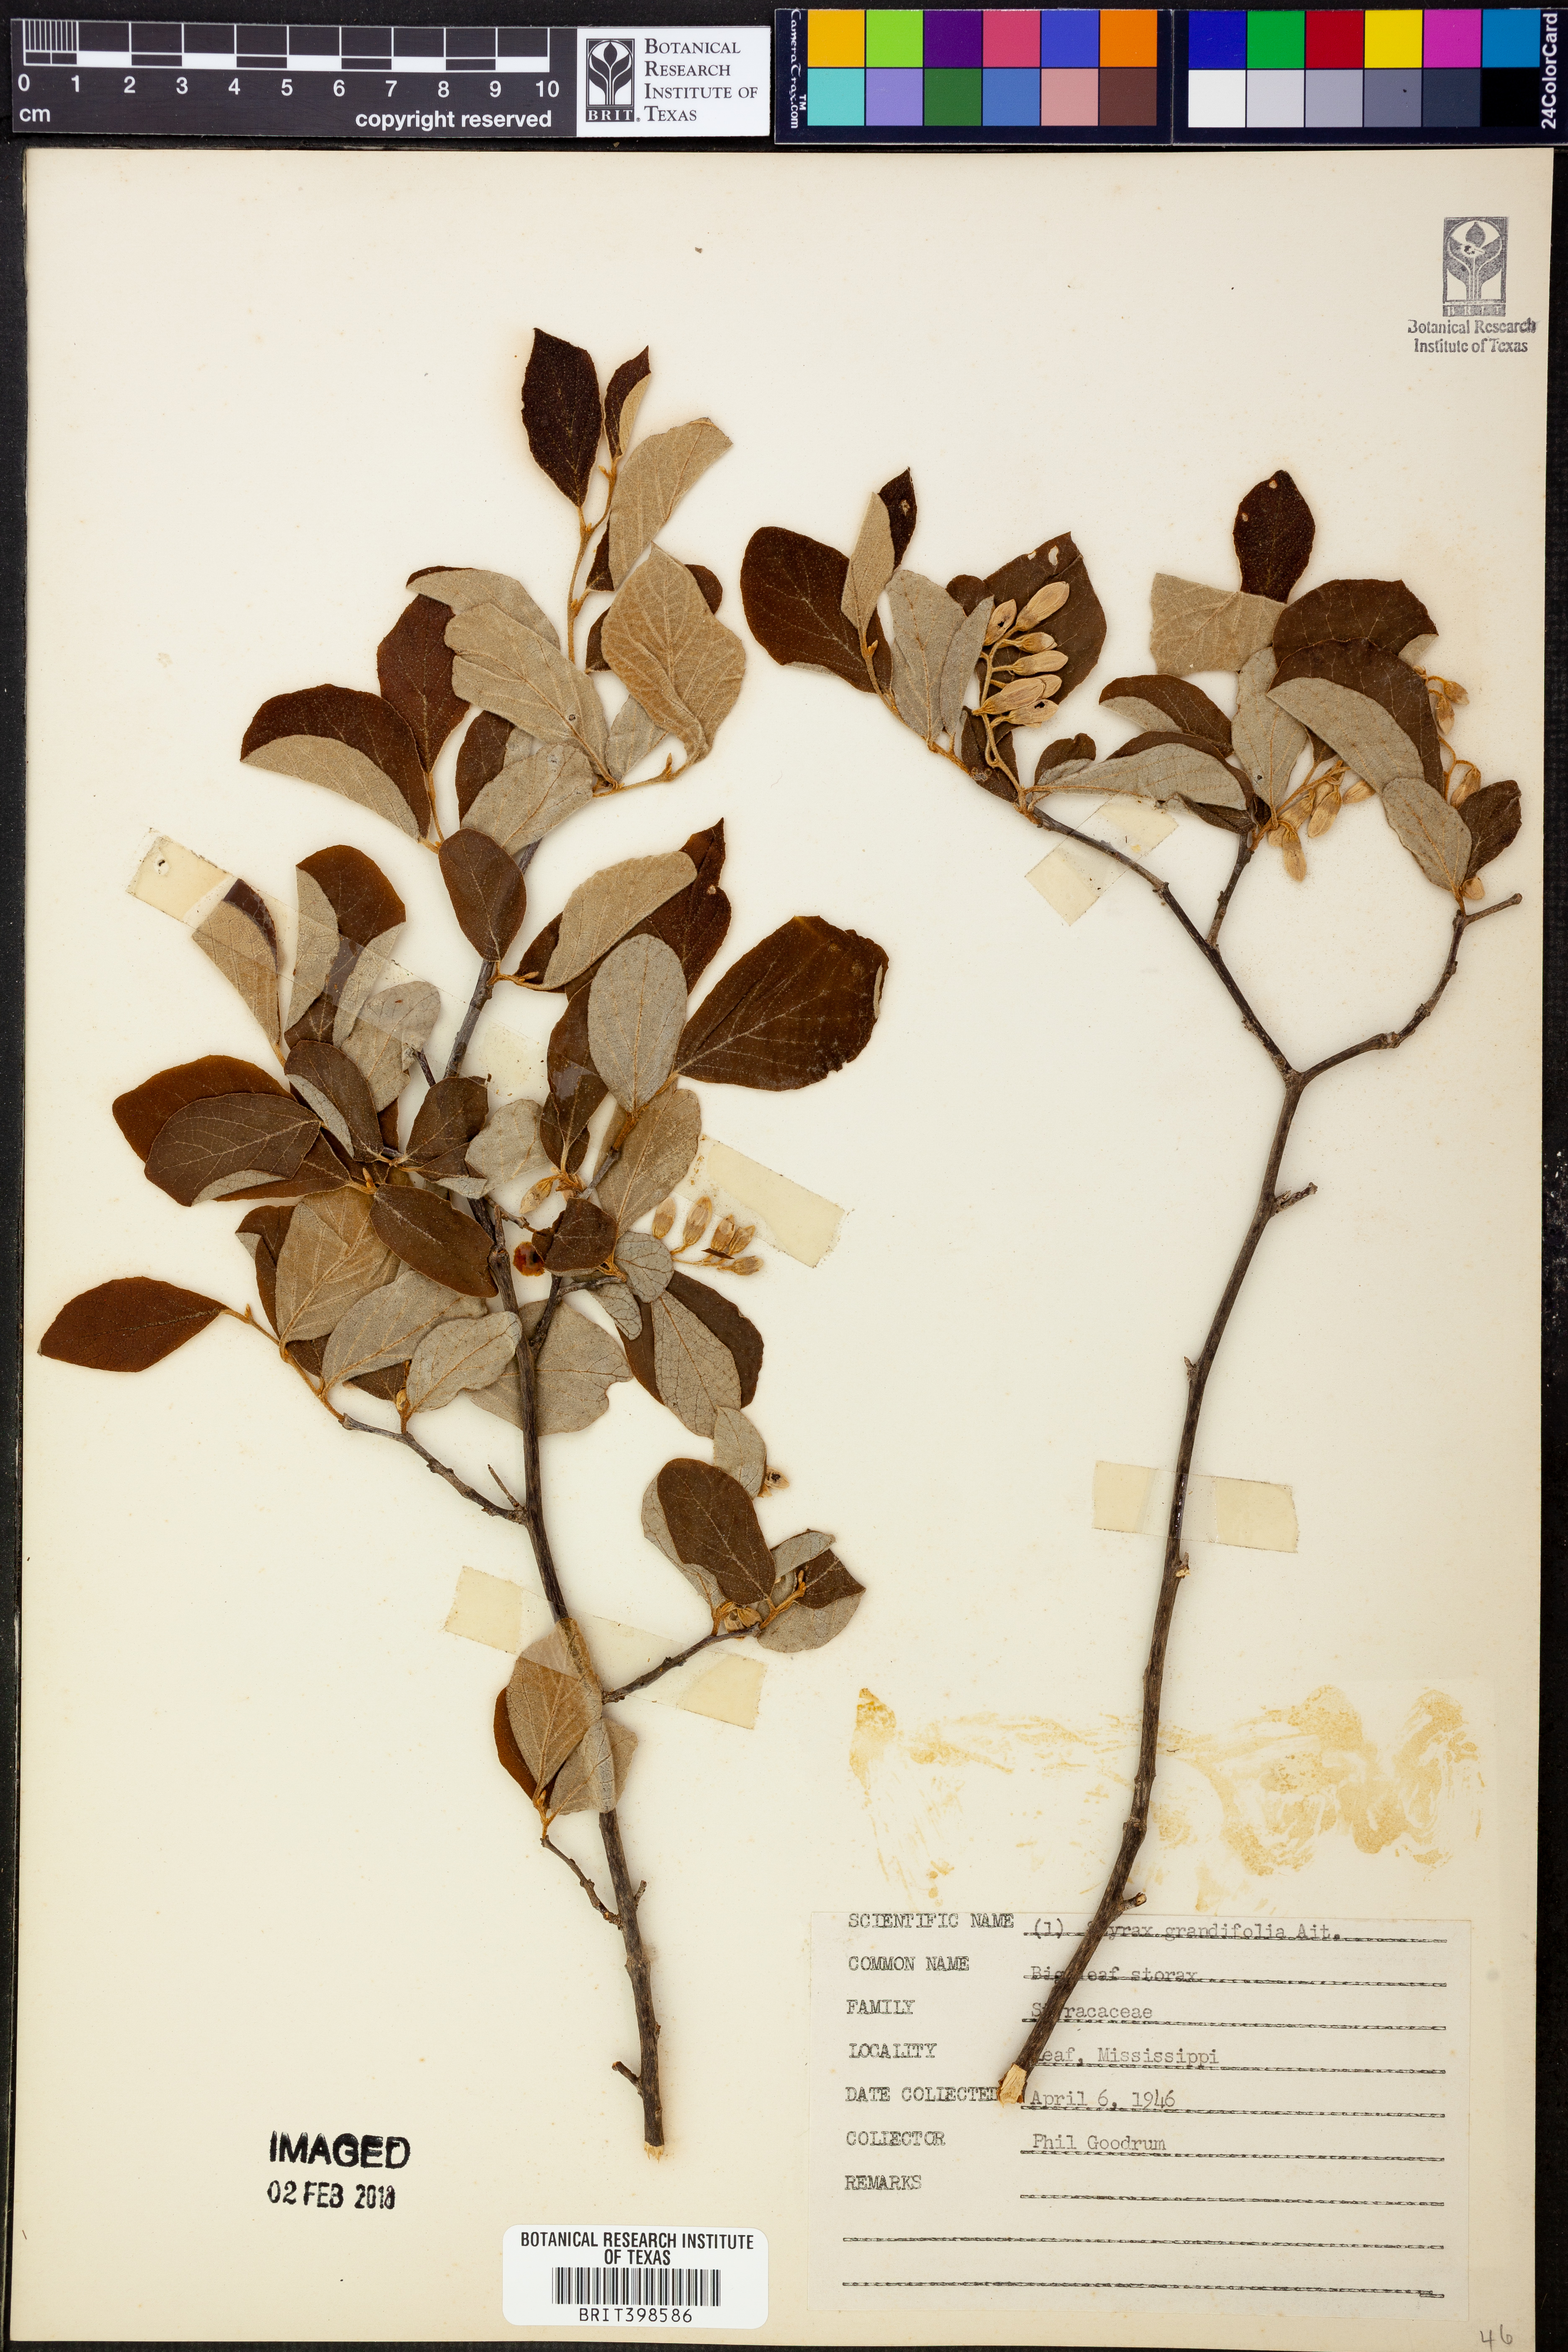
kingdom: Plantae
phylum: Tracheophyta
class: Magnoliopsida
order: Ericales
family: Styracaceae
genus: Styrax
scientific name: Styrax grandifolius
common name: Big-leaf snowbell
